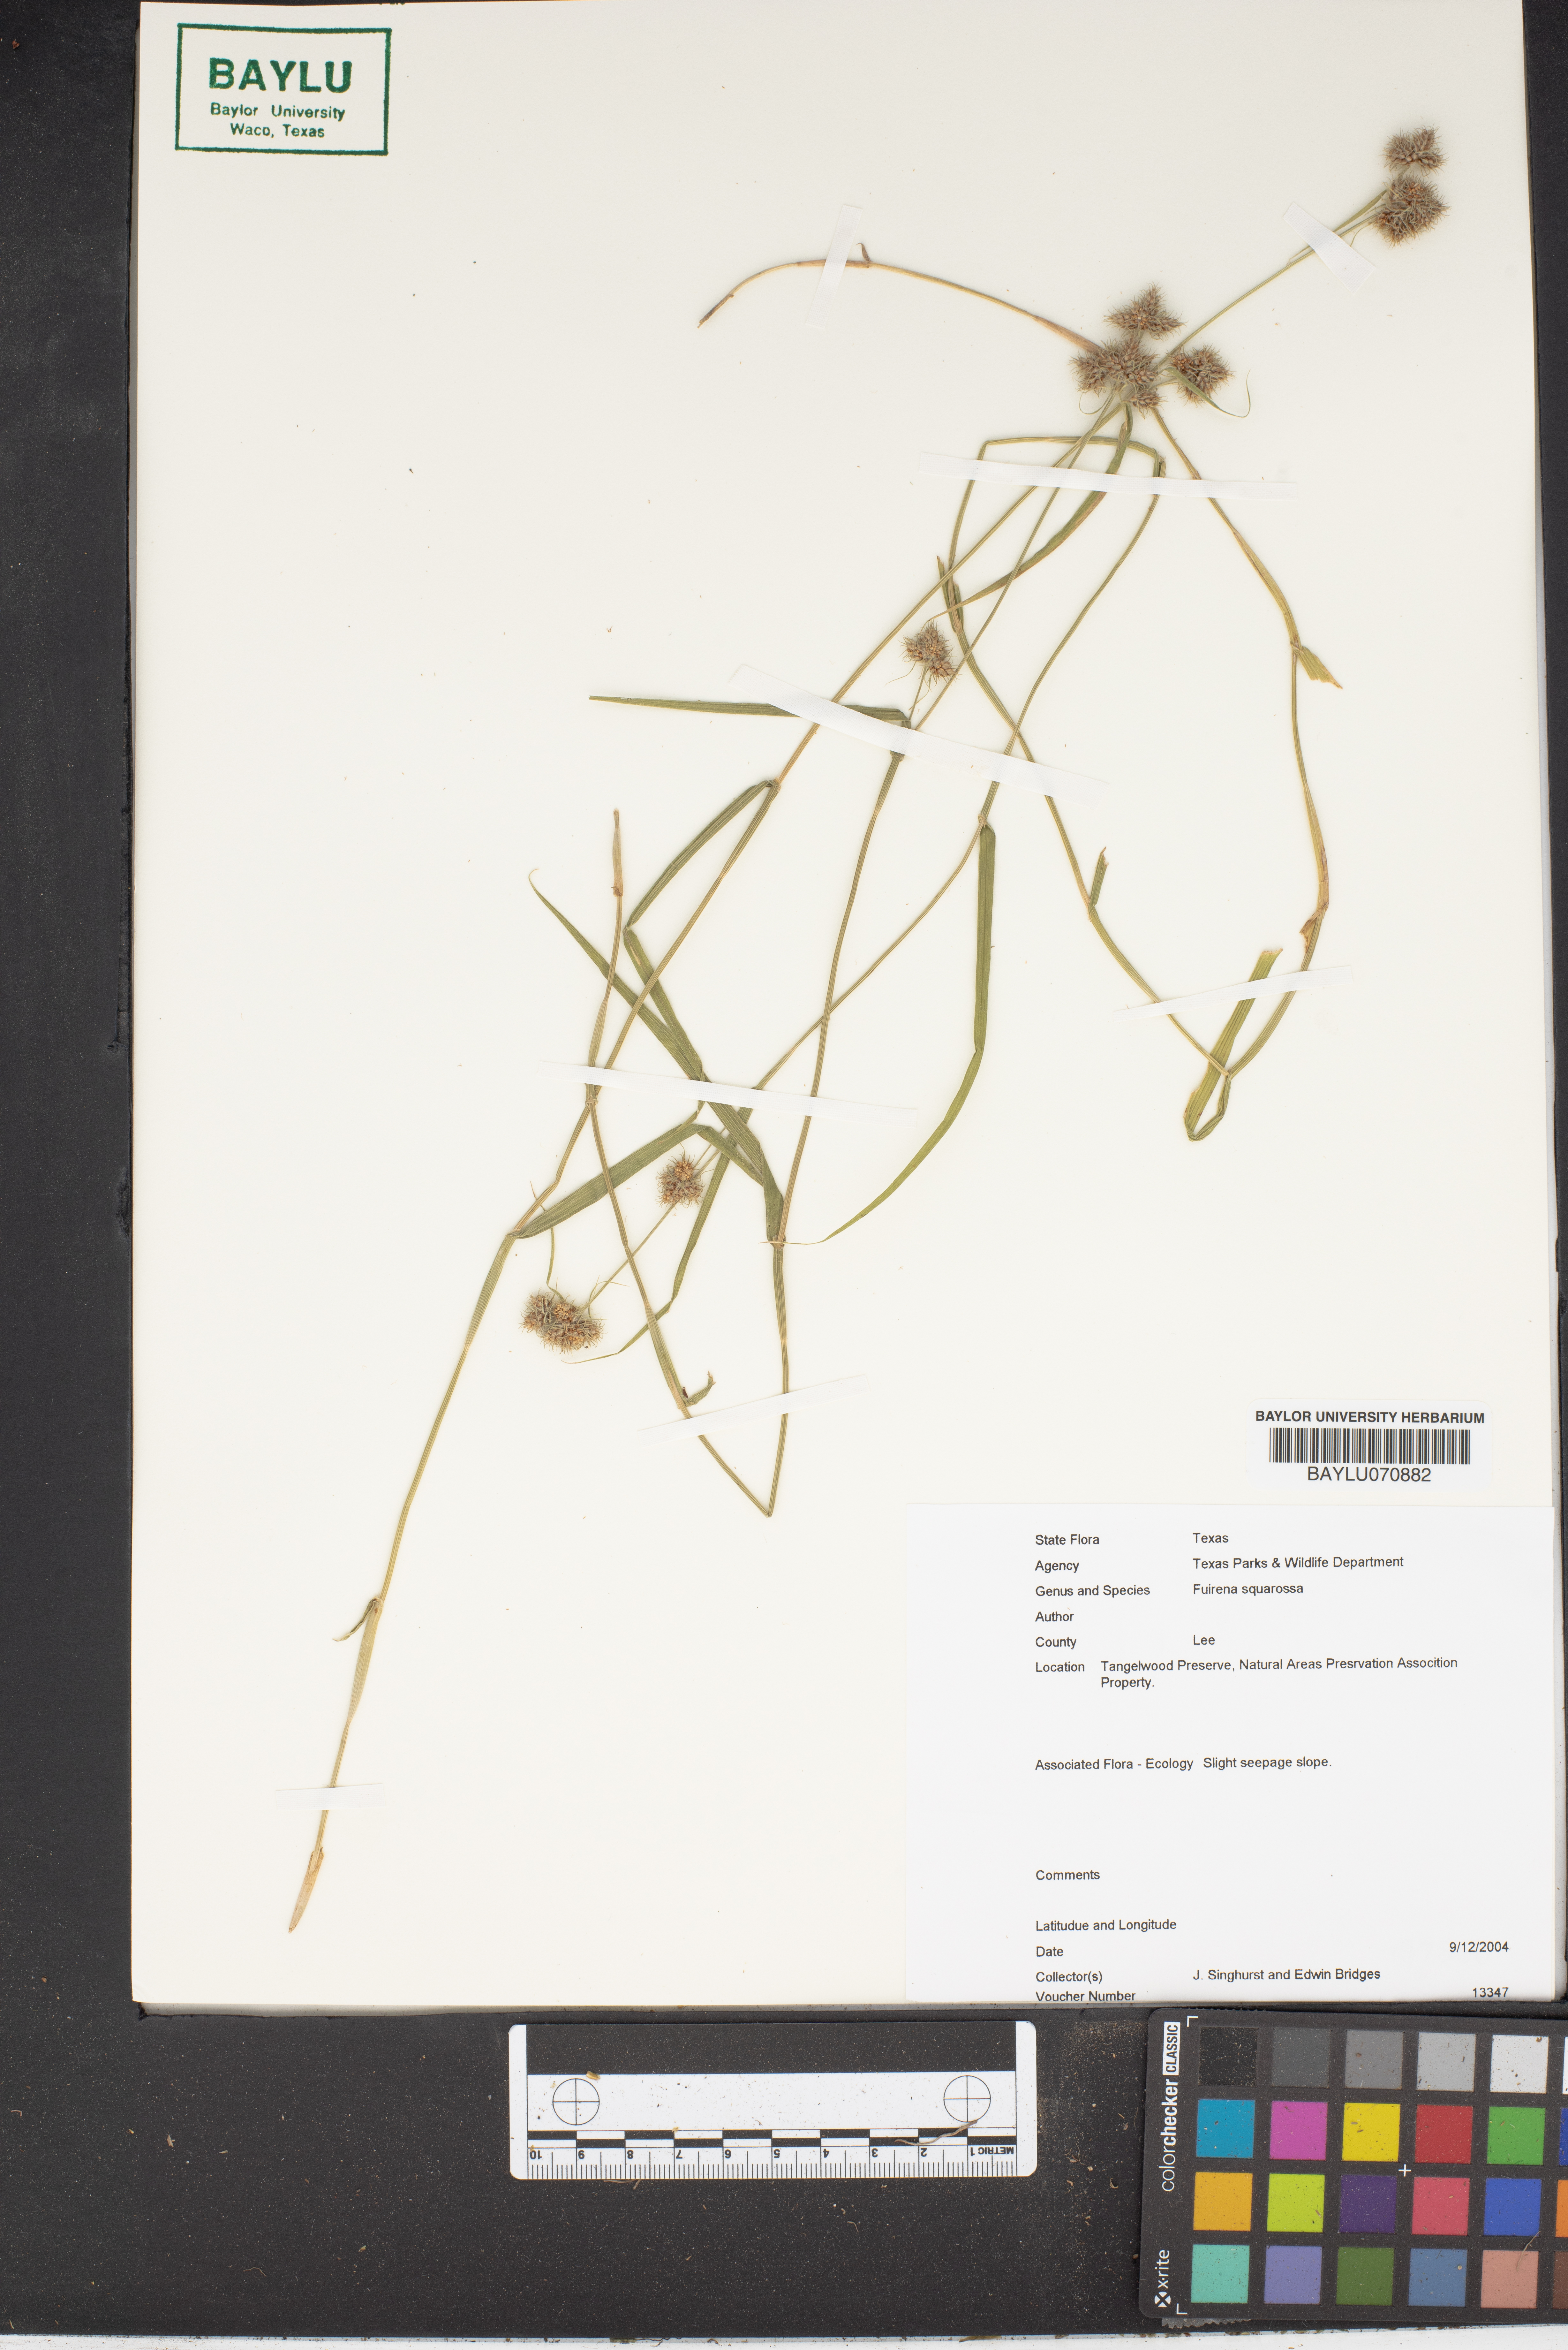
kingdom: Plantae
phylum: Tracheophyta
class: Liliopsida
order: Poales
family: Cyperaceae
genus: Fuirena
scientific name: Fuirena squarrosa
